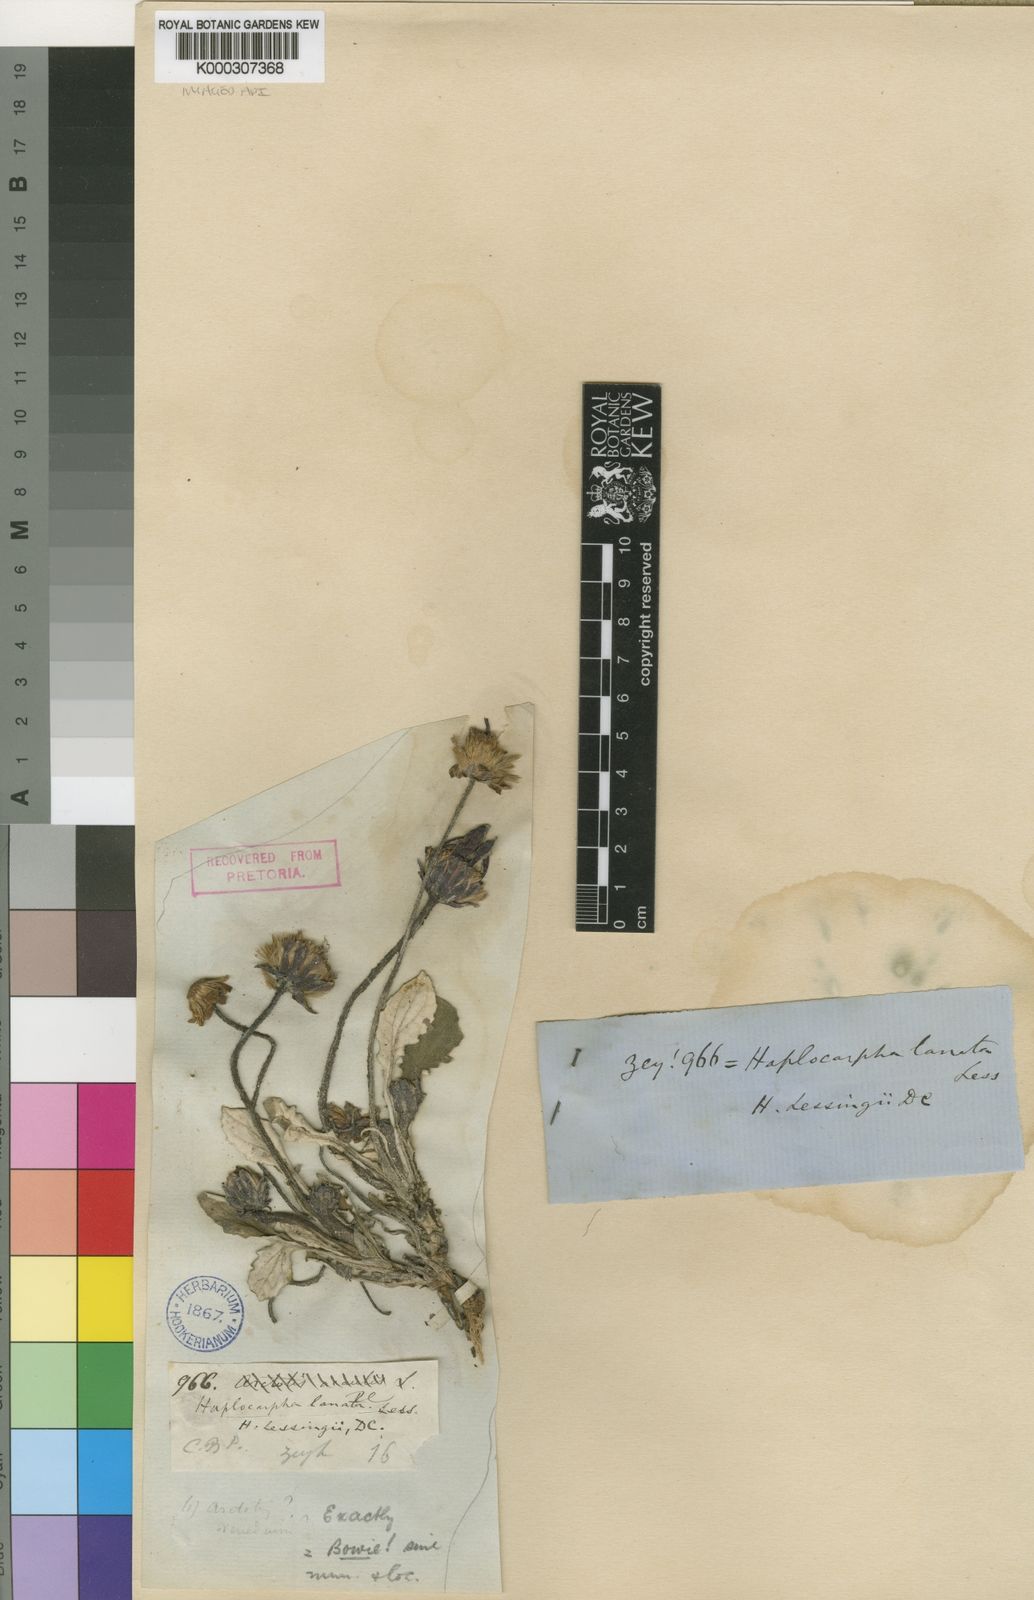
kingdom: Plantae
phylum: Tracheophyta
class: Magnoliopsida
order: Asterales
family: Asteraceae
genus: Haplocarpha
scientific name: Haplocarpha lanata
